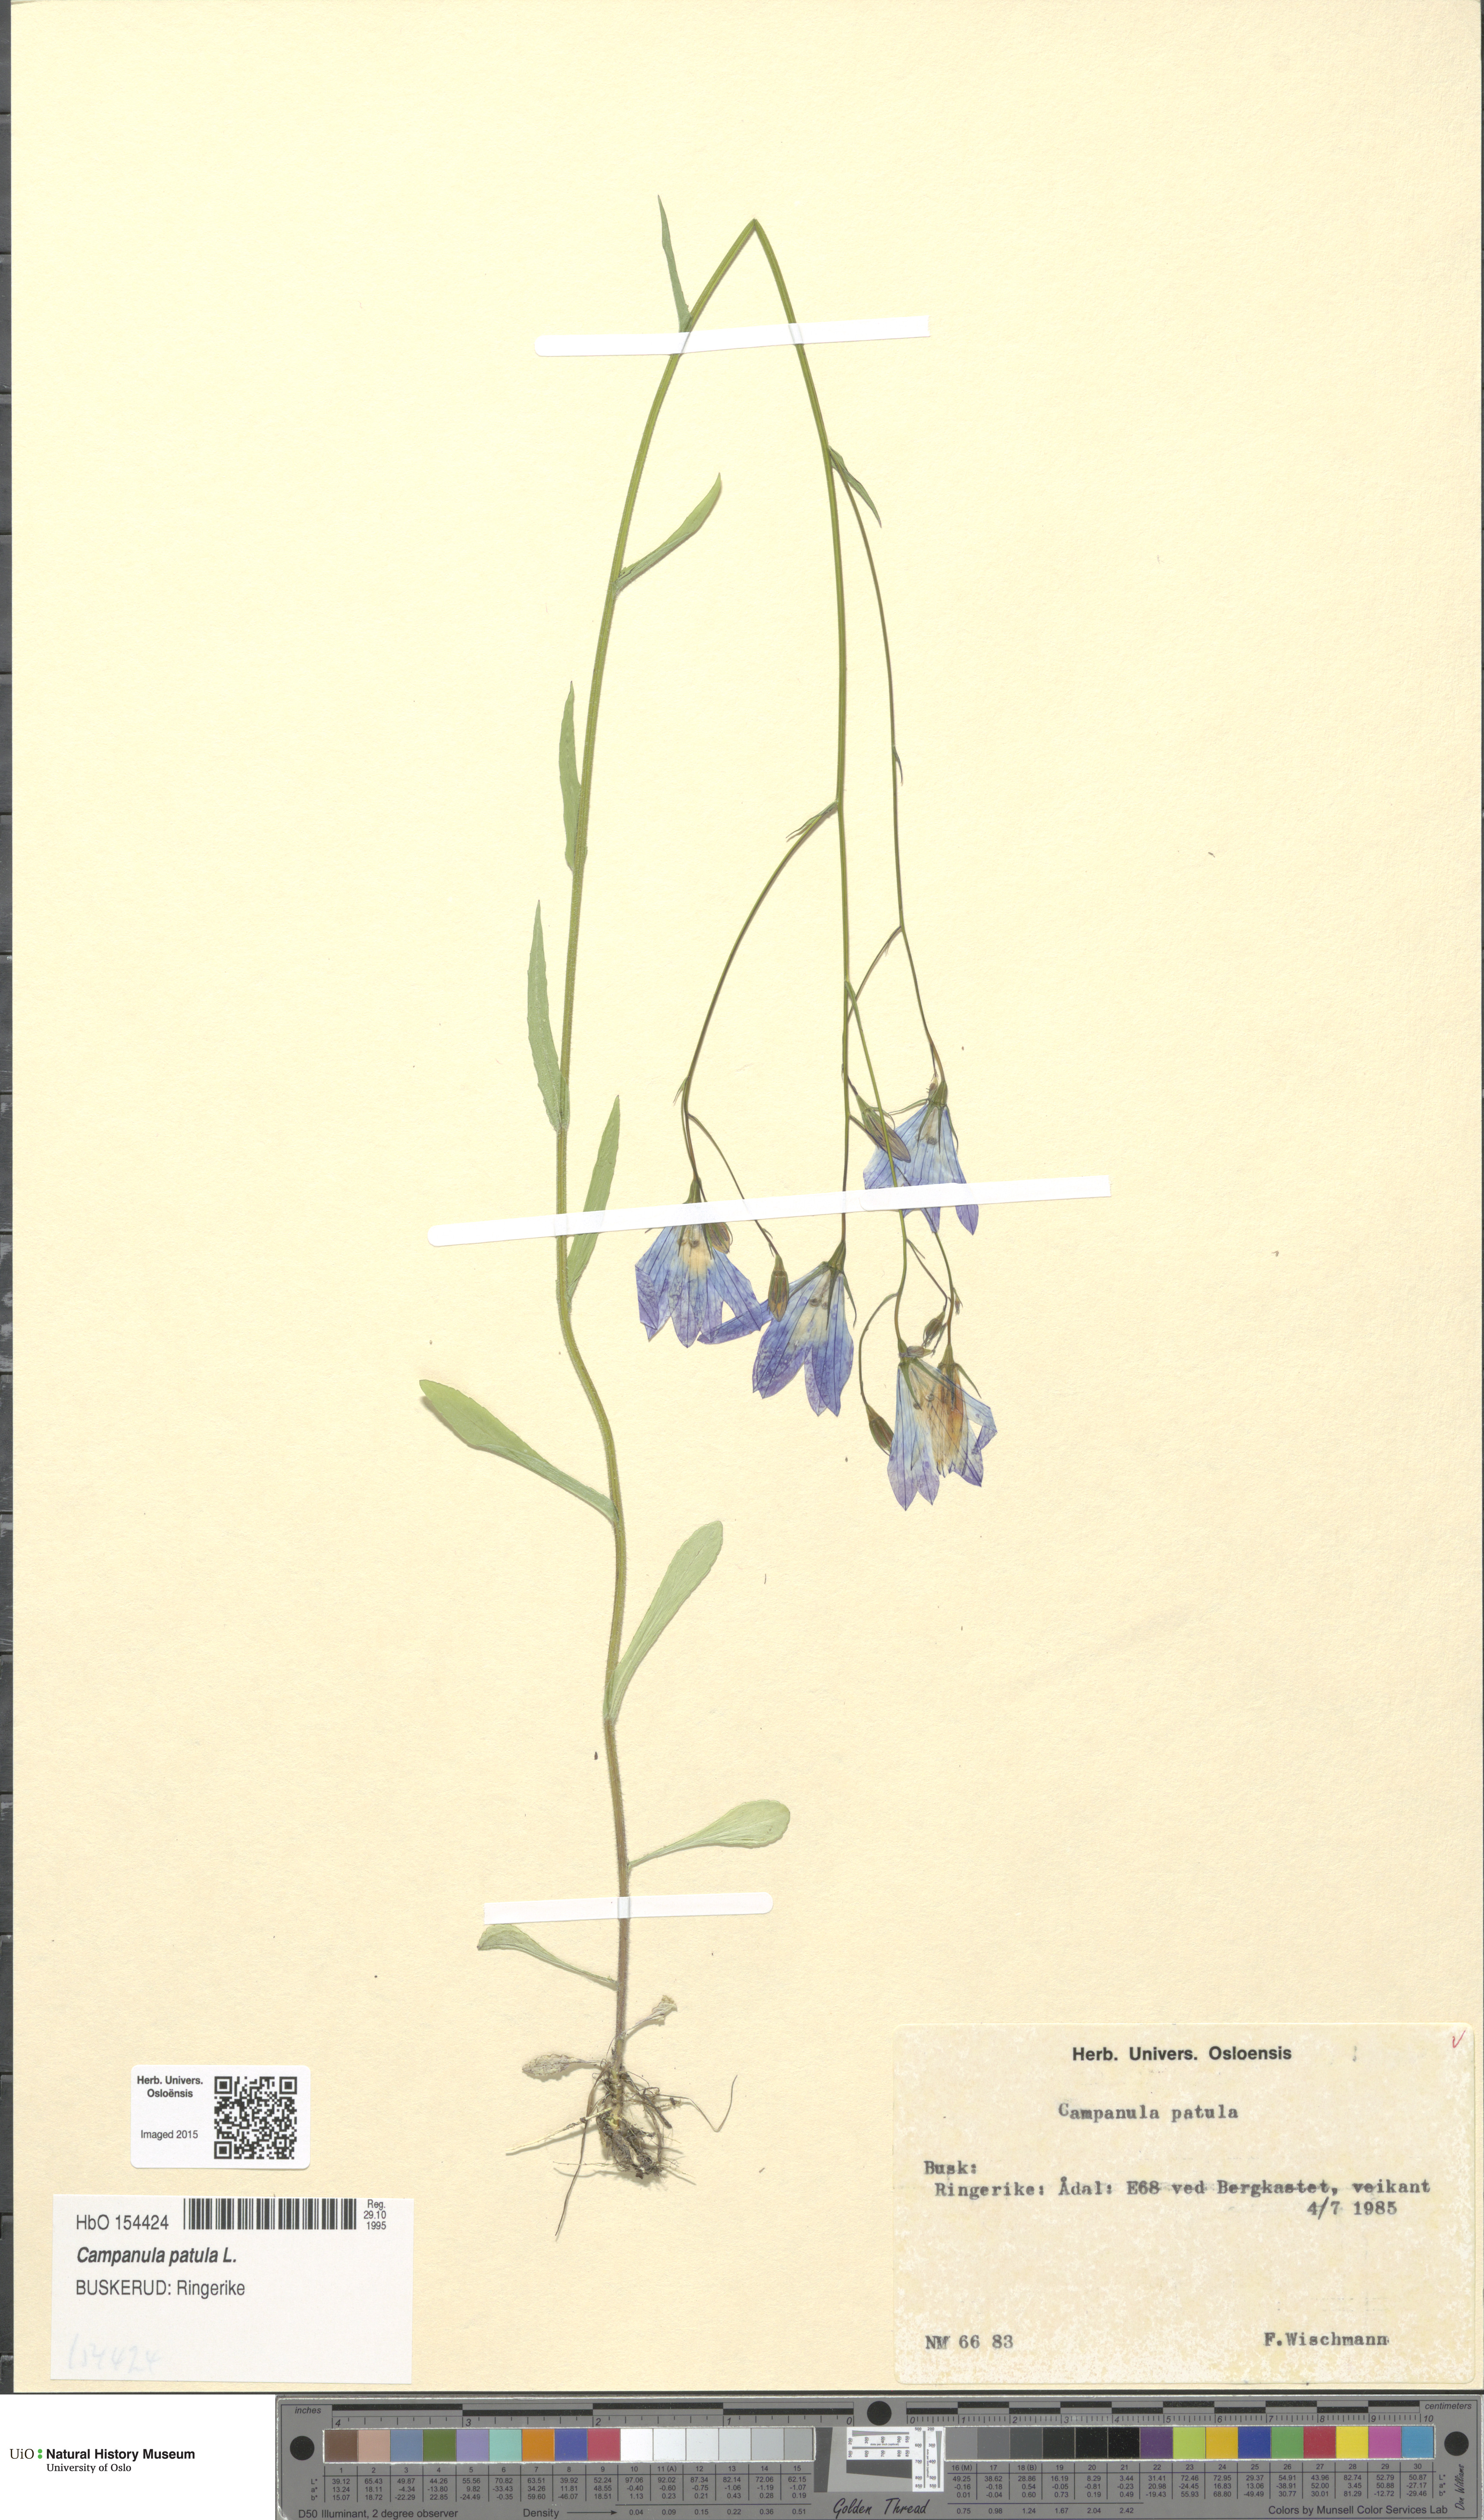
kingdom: Plantae
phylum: Tracheophyta
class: Magnoliopsida
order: Asterales
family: Campanulaceae
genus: Campanula
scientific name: Campanula patula
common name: Spreading bellflower
